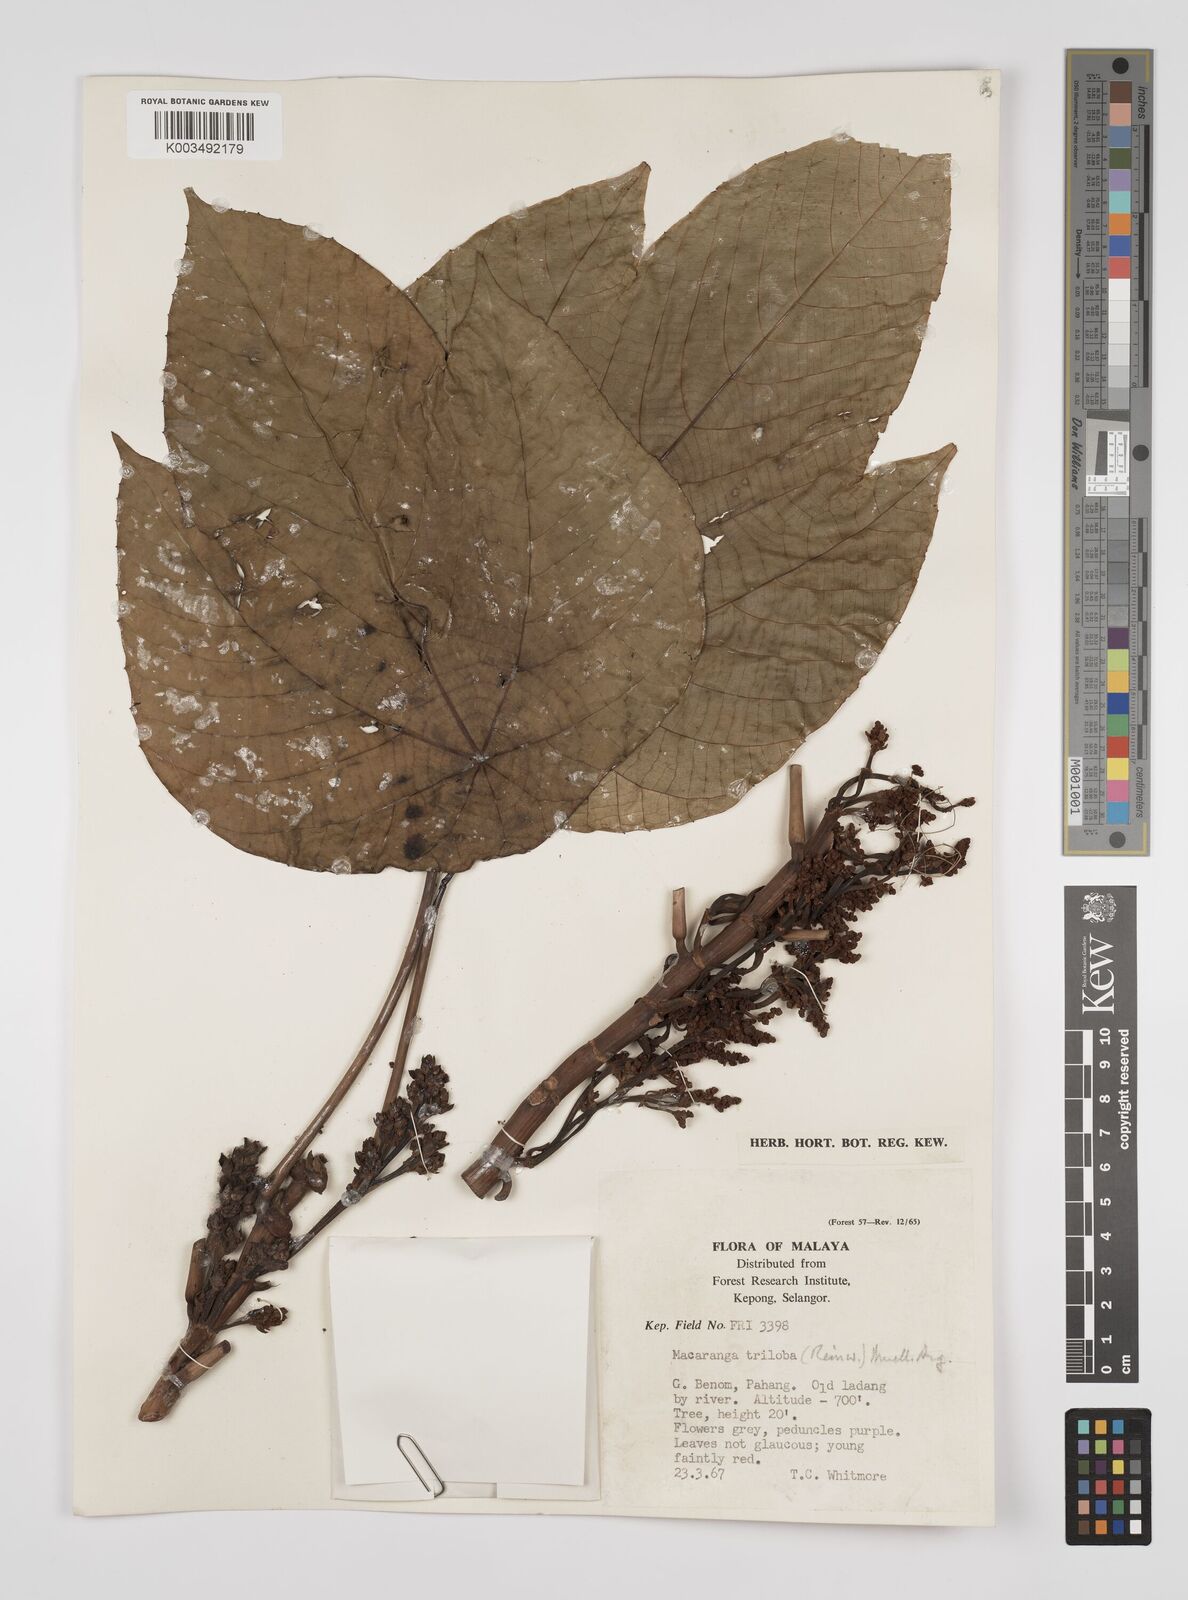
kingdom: Plantae
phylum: Tracheophyta
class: Magnoliopsida
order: Malpighiales
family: Euphorbiaceae
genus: Macaranga
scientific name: Macaranga triloba
